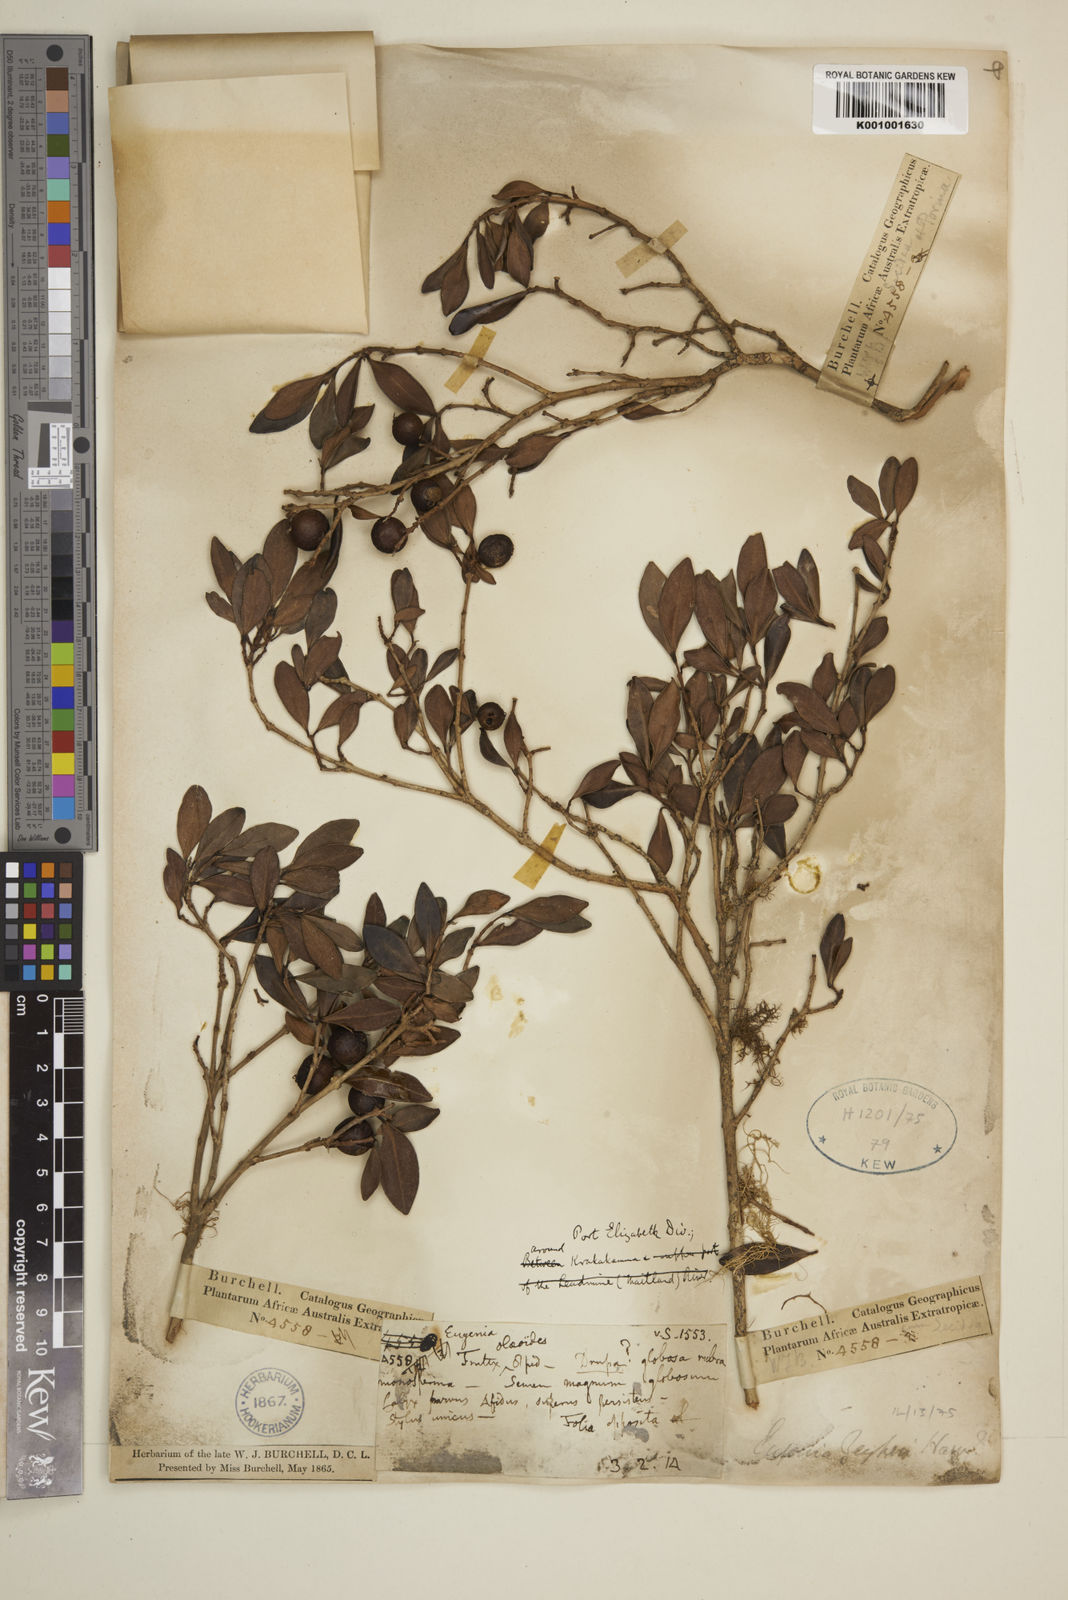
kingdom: Plantae
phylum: Tracheophyta
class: Magnoliopsida
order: Myrtales
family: Myrtaceae
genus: Eugenia
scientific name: Eugenia zeyheri
